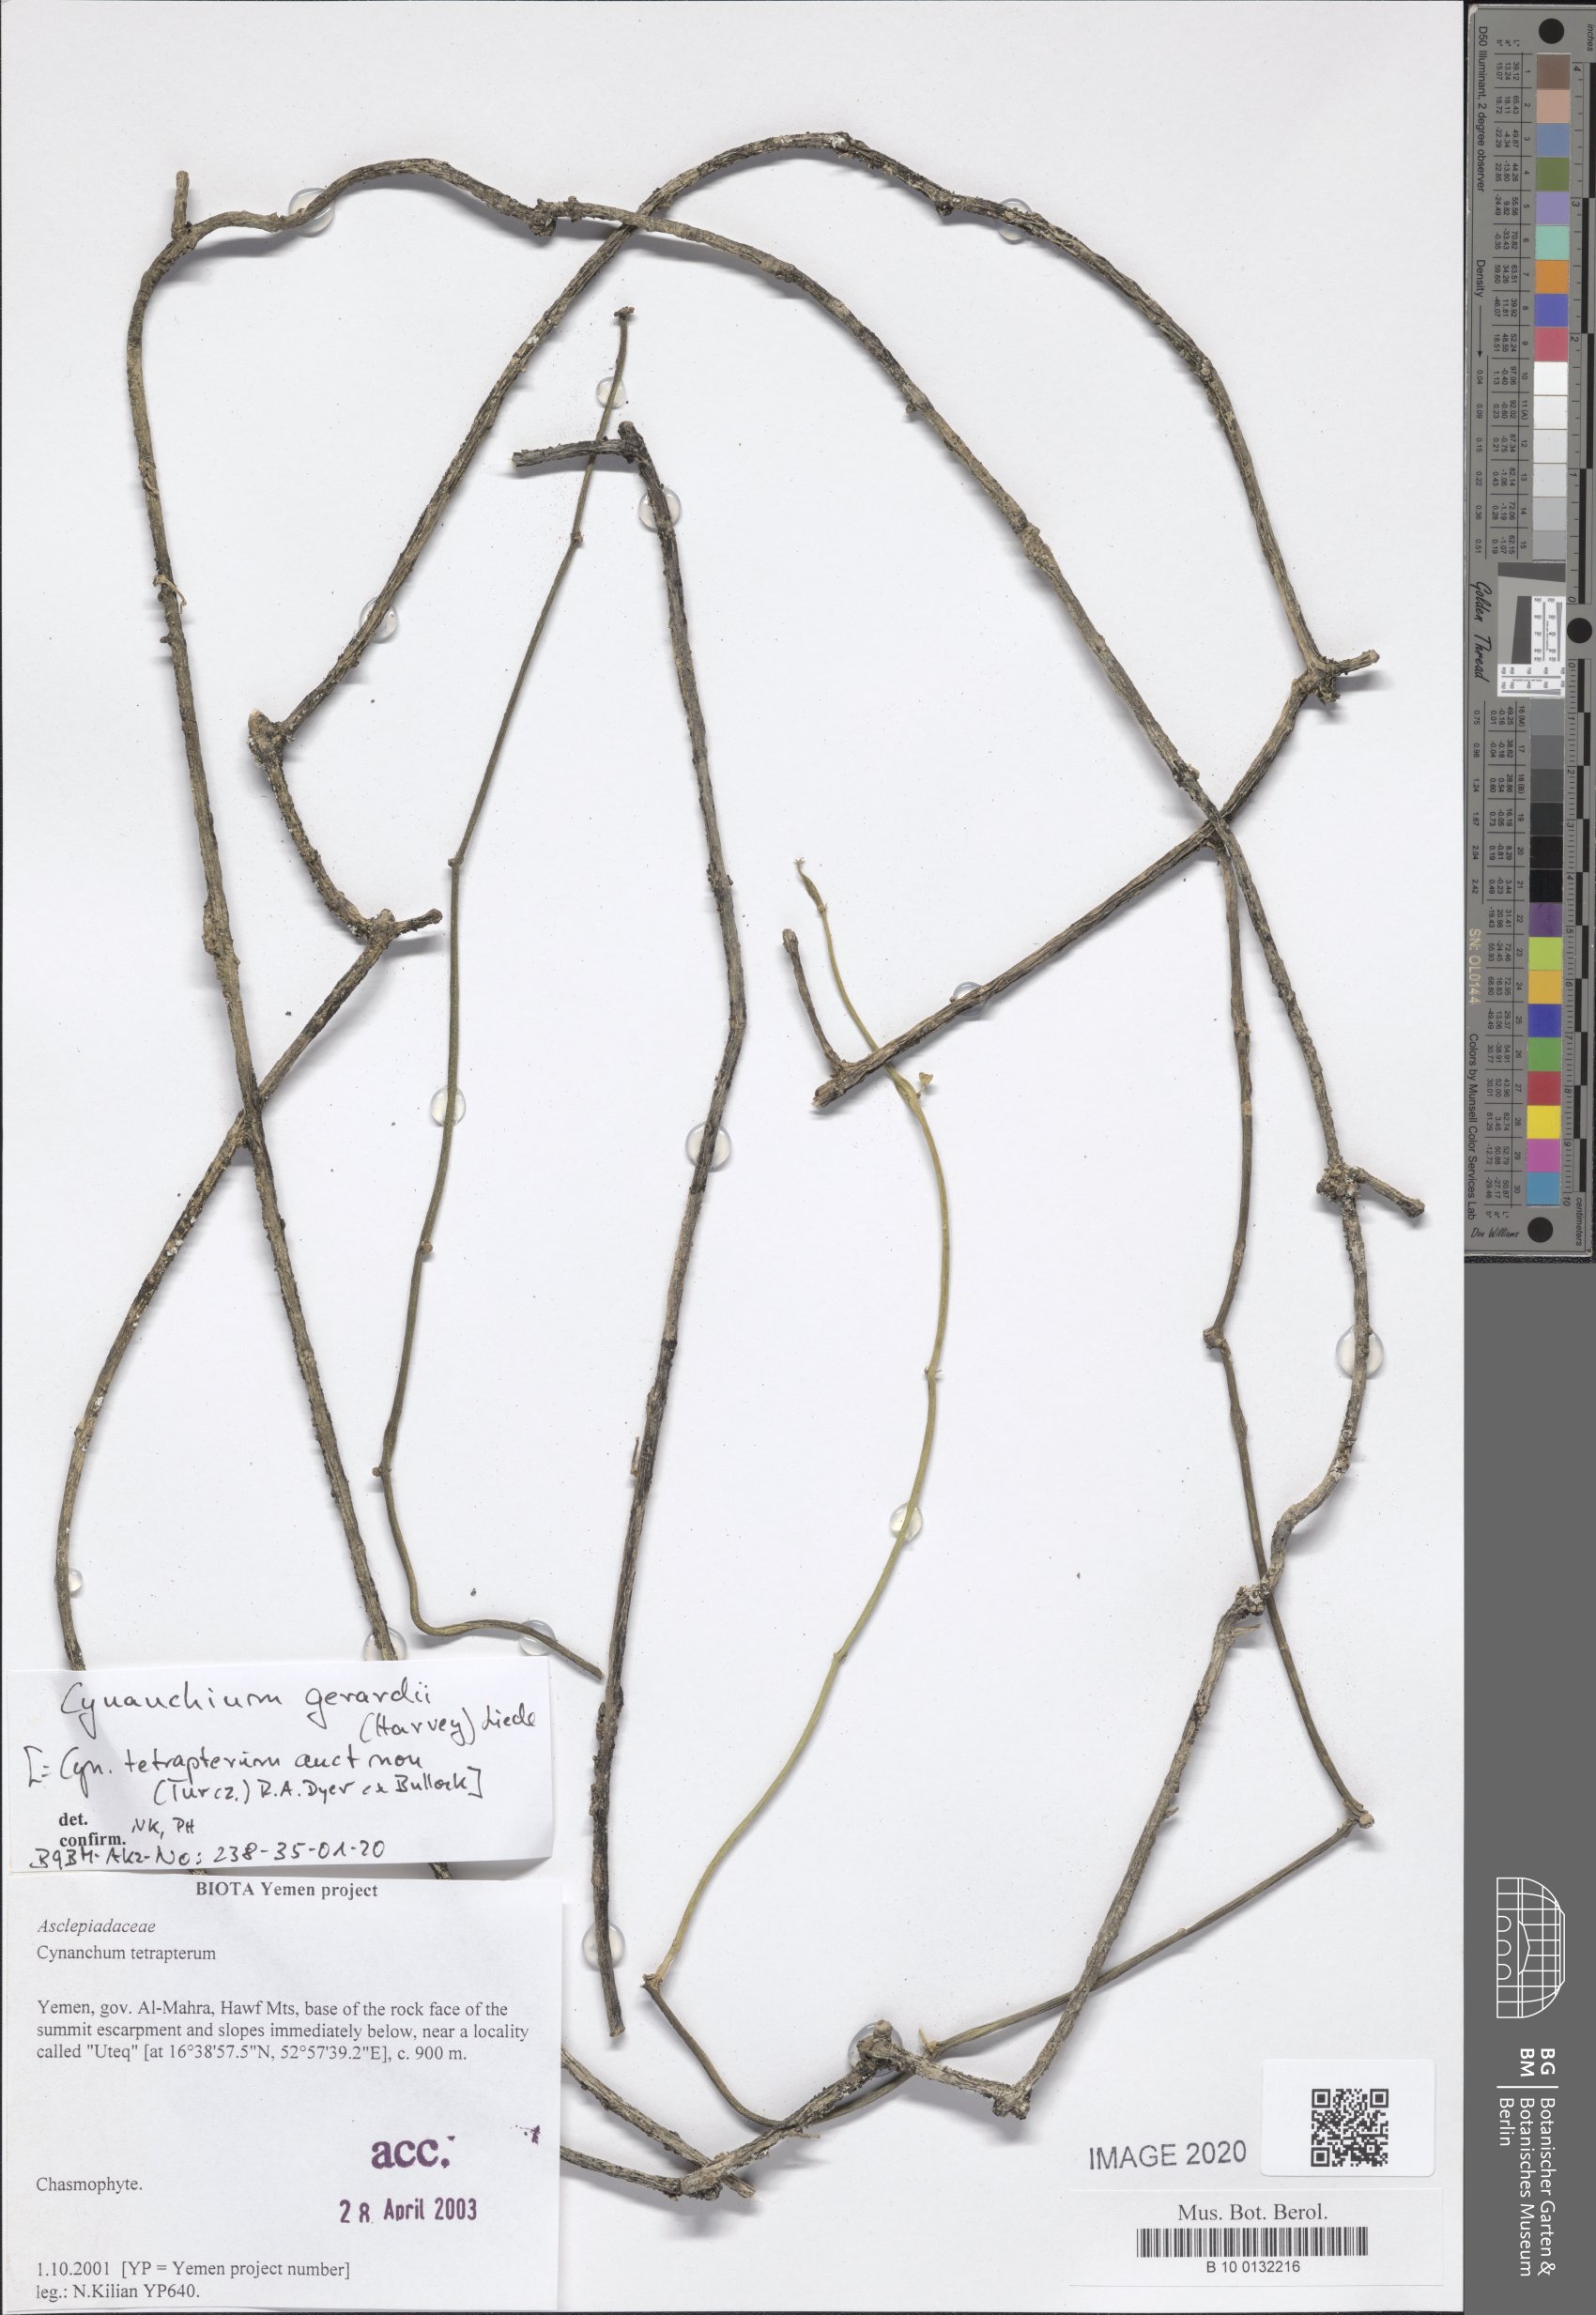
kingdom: Plantae
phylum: Tracheophyta
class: Magnoliopsida
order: Gentianales
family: Apocynaceae
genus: Cynanchum
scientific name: Cynanchum gerrardi
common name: Swallow-wort
